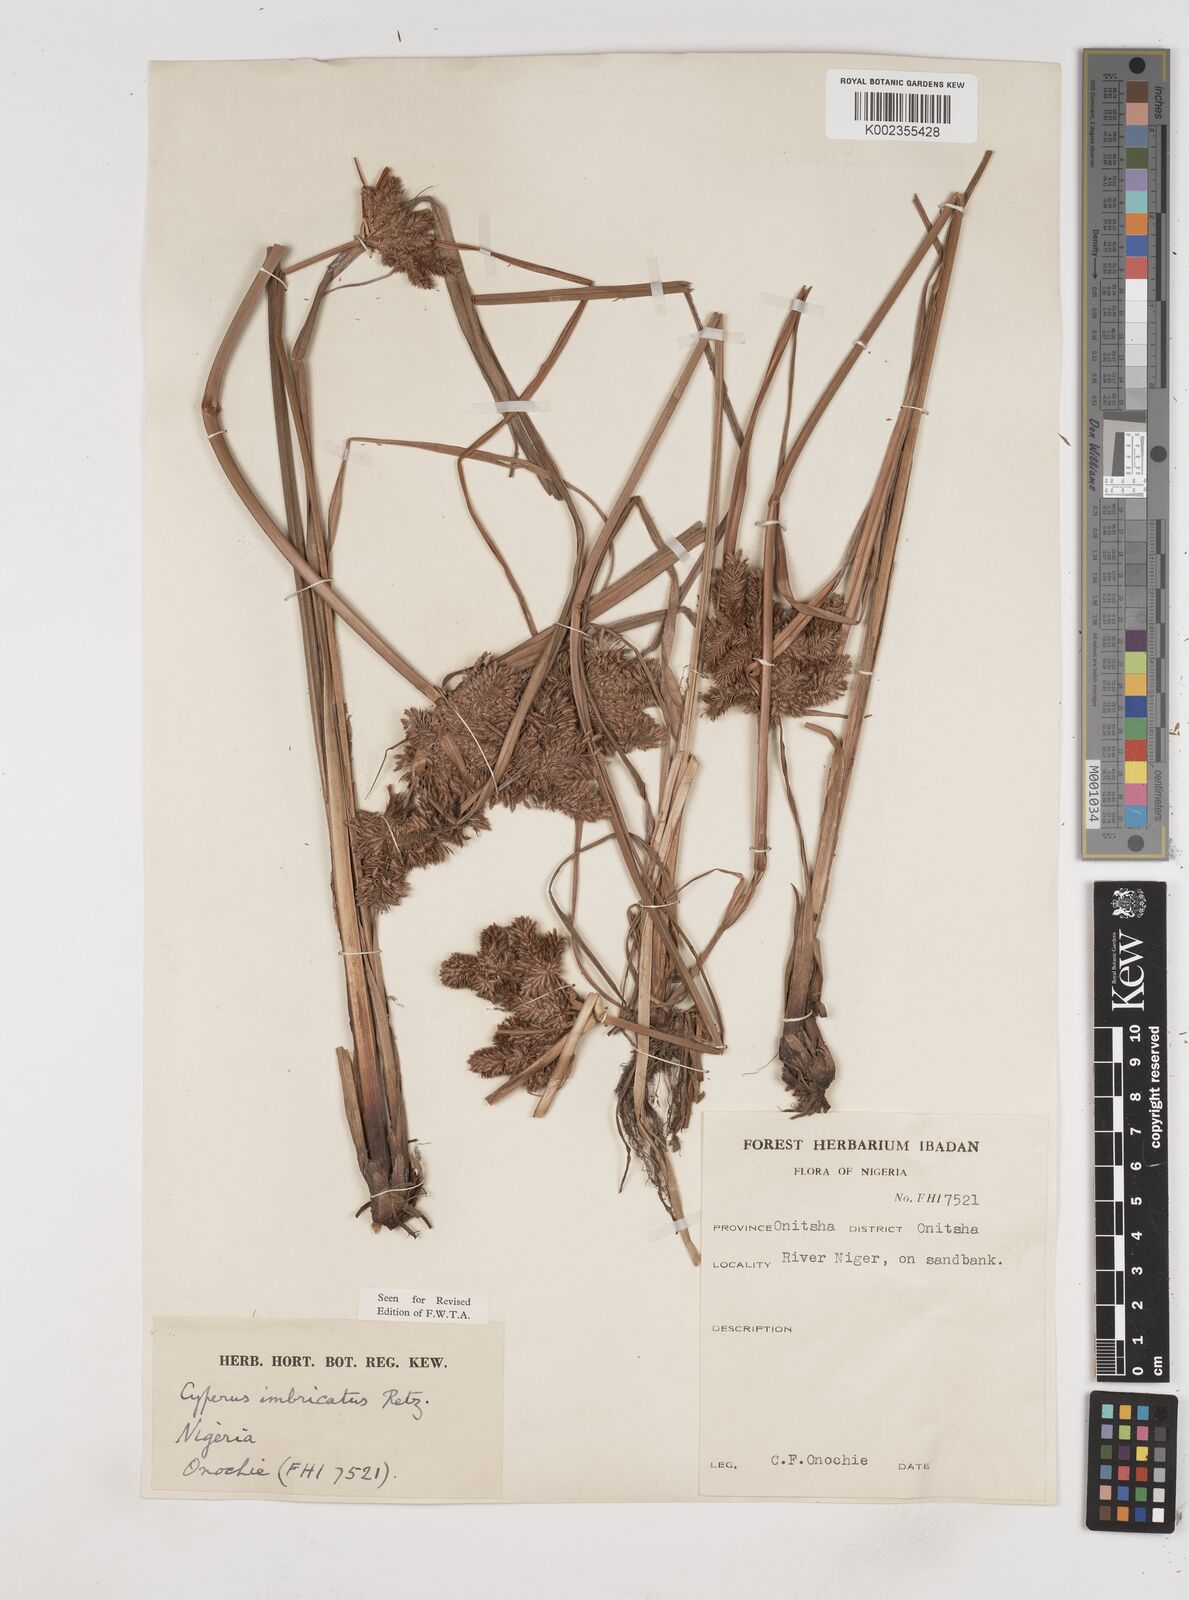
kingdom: Plantae
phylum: Tracheophyta
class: Liliopsida
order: Poales
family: Cyperaceae
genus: Cyperus
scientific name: Cyperus imbricatus
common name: Shingle flatsedge
